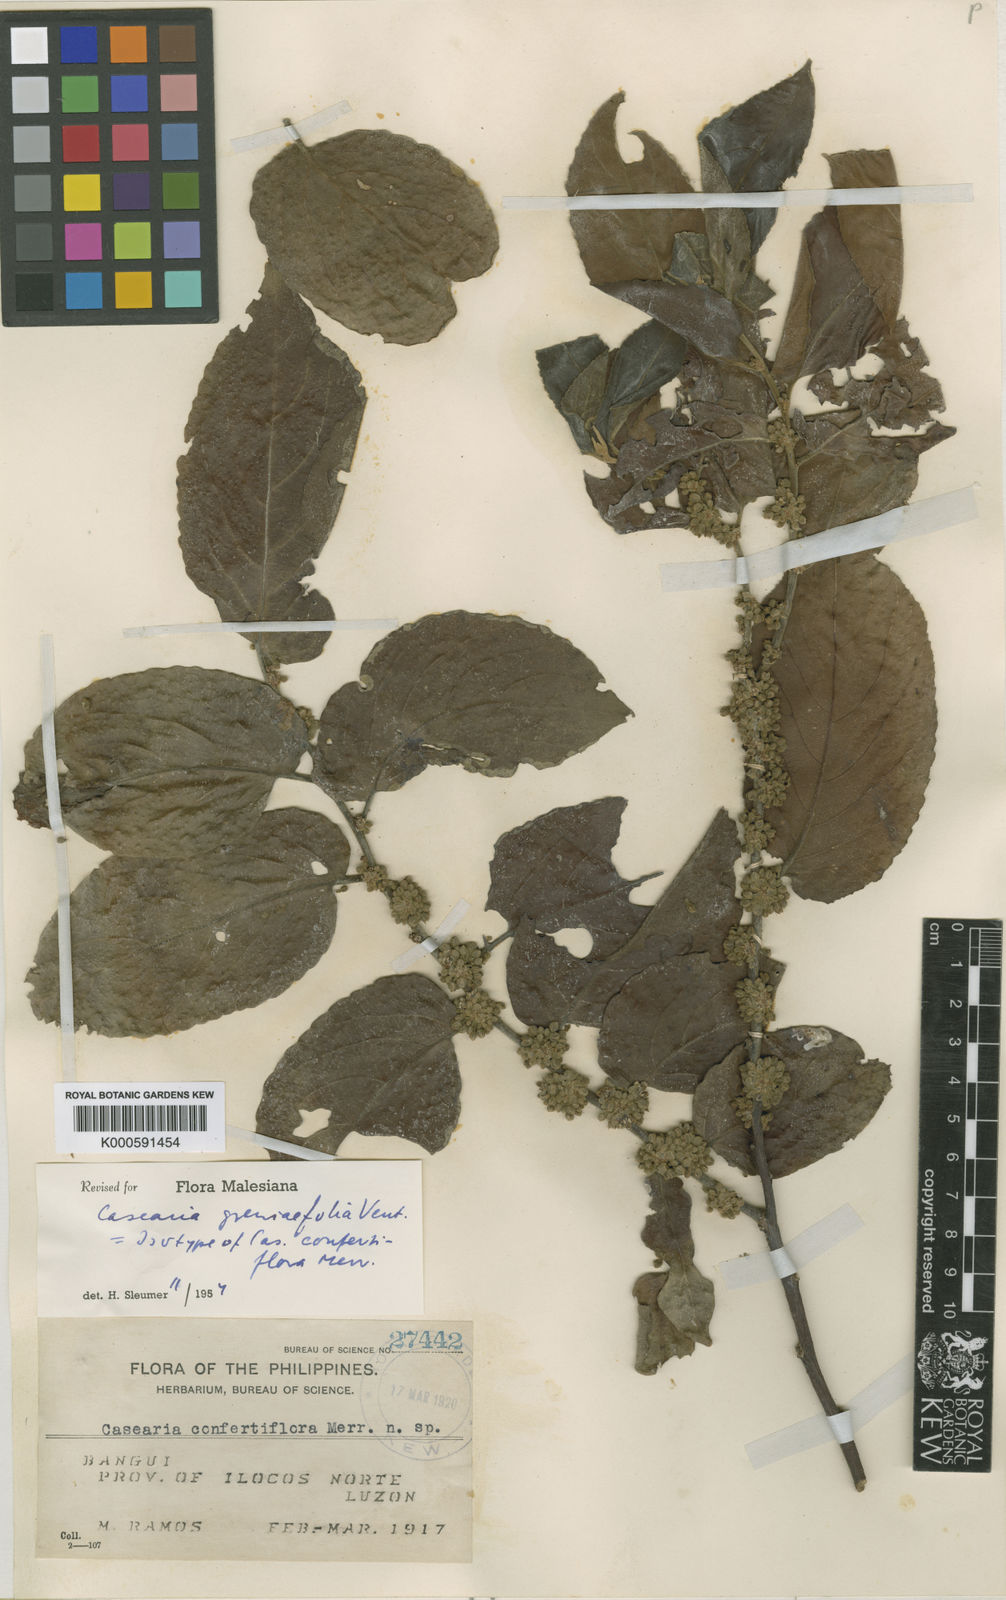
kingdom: Plantae
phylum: Tracheophyta
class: Magnoliopsida
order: Malpighiales
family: Salicaceae
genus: Casearia
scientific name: Casearia grewiifolia
